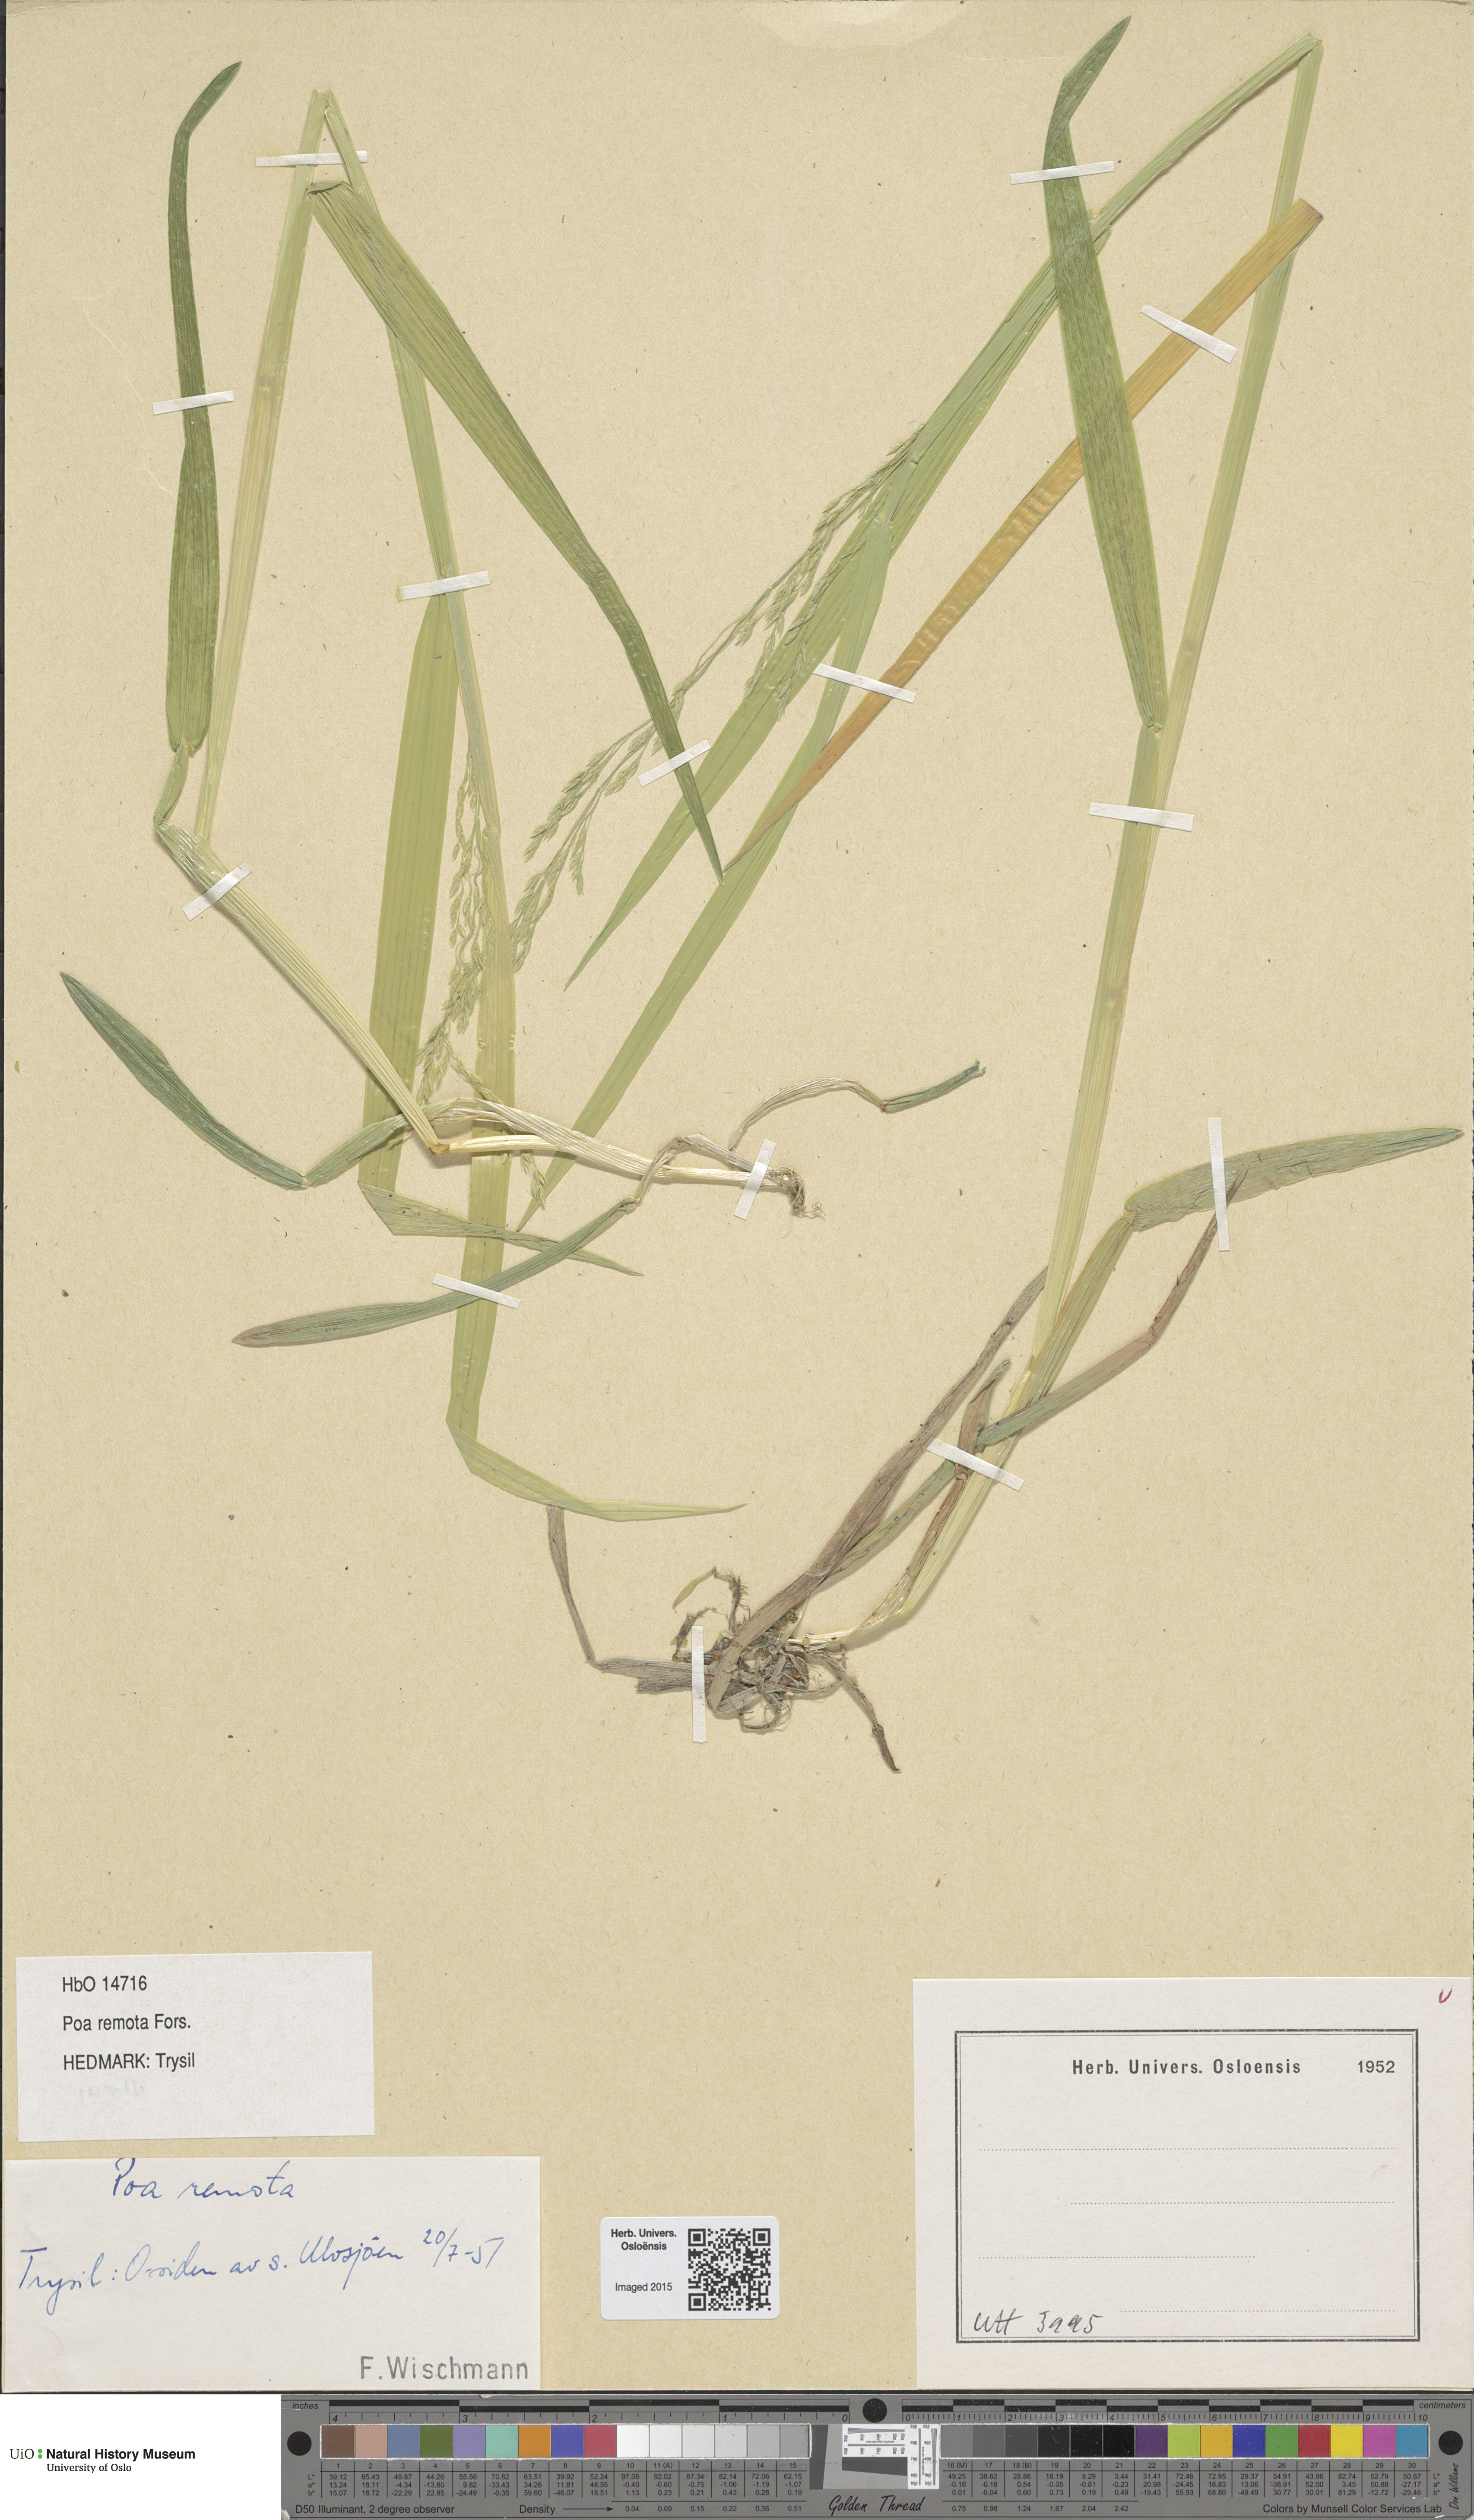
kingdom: Plantae
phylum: Tracheophyta
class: Liliopsida
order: Poales
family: Poaceae
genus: Poa
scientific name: Poa remota
